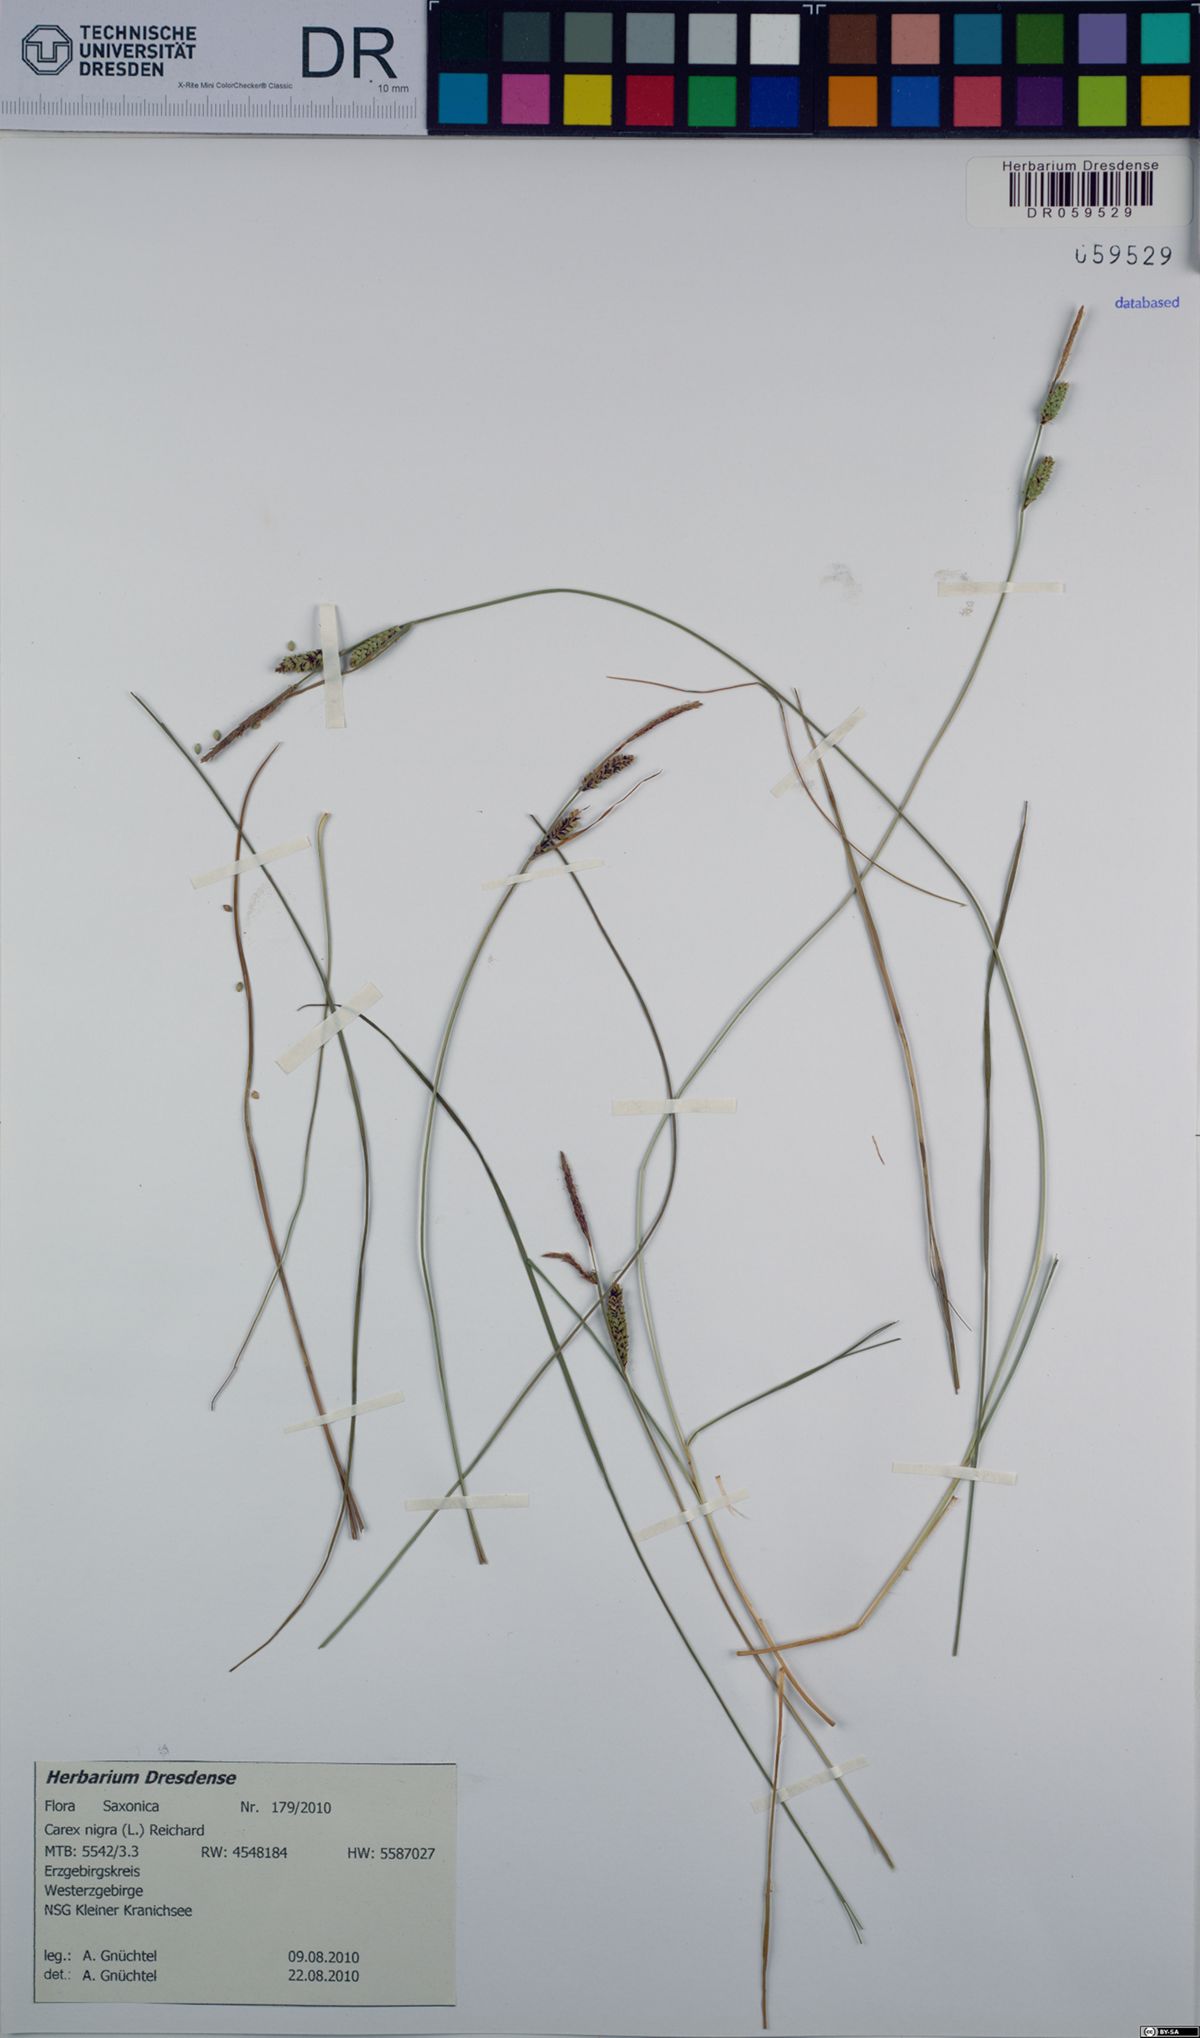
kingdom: Plantae
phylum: Tracheophyta
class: Liliopsida
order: Poales
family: Cyperaceae
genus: Carex
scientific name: Carex nigra
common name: Common sedge
